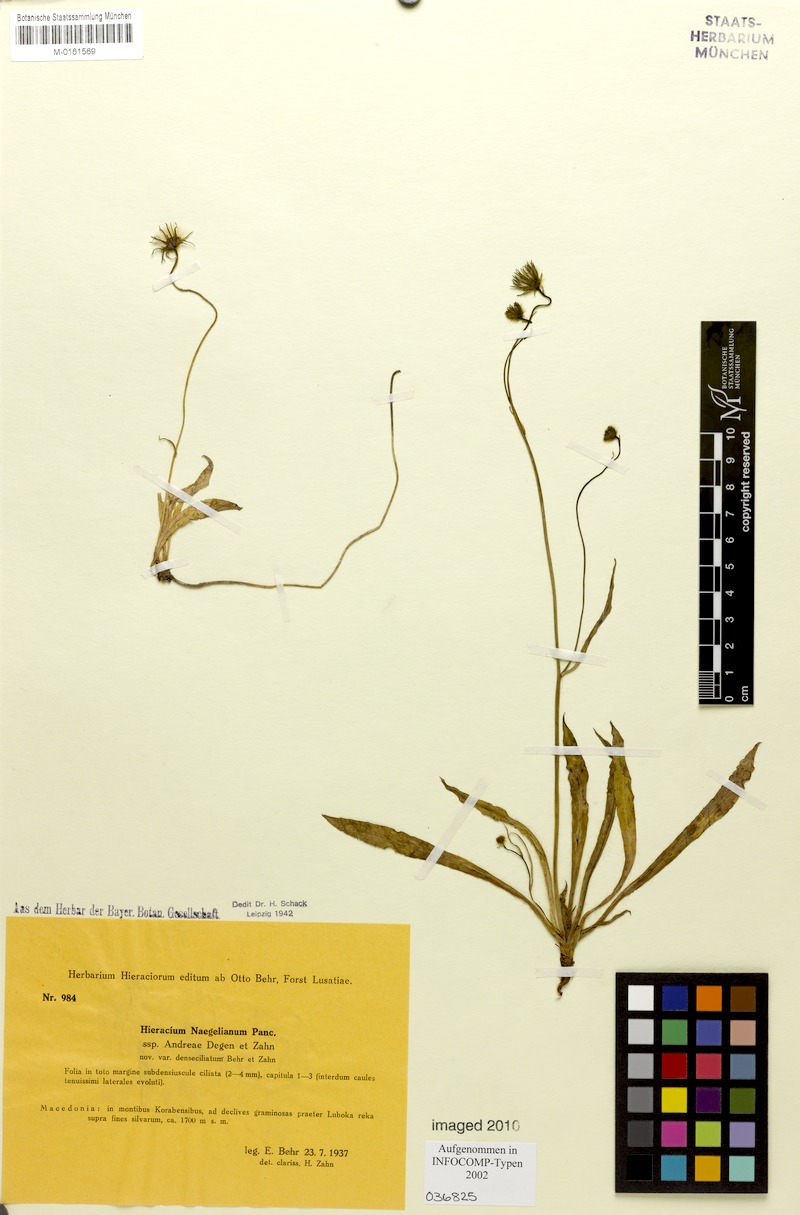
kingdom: Plantae
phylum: Tracheophyta
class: Magnoliopsida
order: Asterales
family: Asteraceae
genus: Hieracium
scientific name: Hieracium naegelianum
